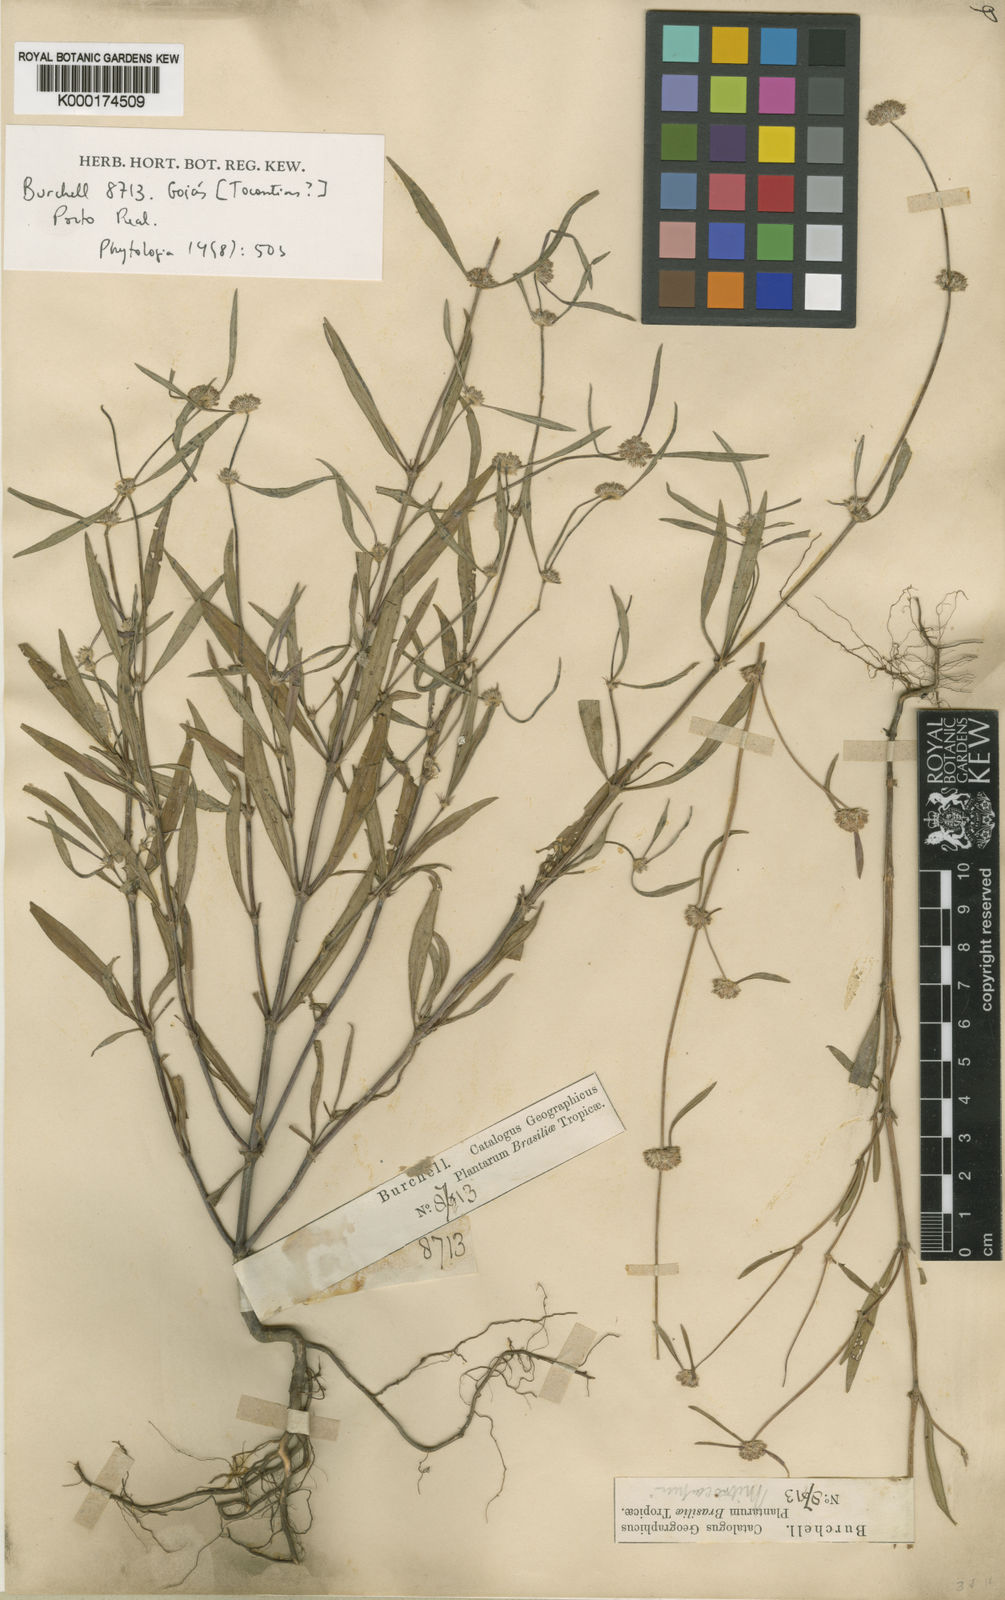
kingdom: Plantae
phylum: Tracheophyta
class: Magnoliopsida
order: Gentianales
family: Rubiaceae
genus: Mitracarpus
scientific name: Mitracarpus frigidus
